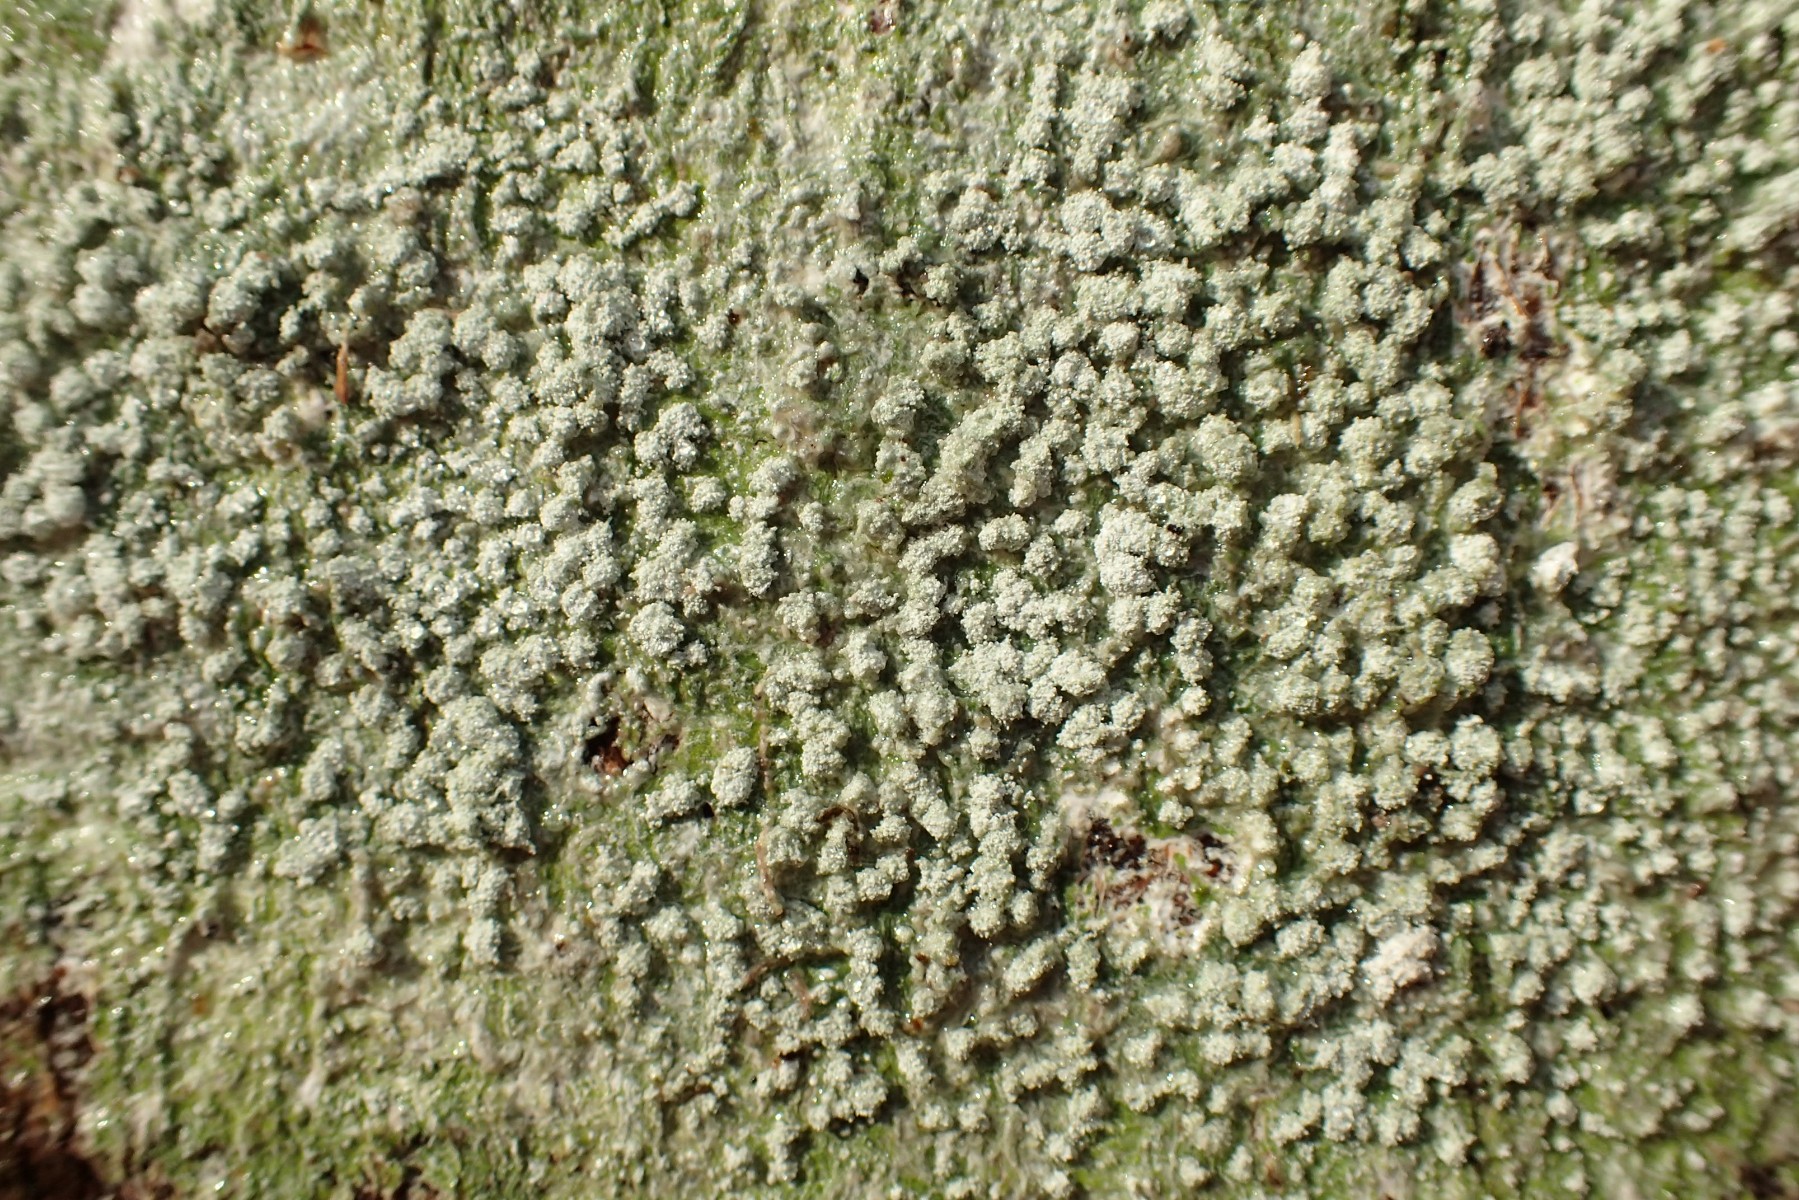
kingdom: Fungi
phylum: Ascomycota
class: Lecanoromycetes
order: Pertusariales
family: Pertusariaceae
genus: Lepra
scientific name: Lepra amara
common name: bitter prikvortelav
